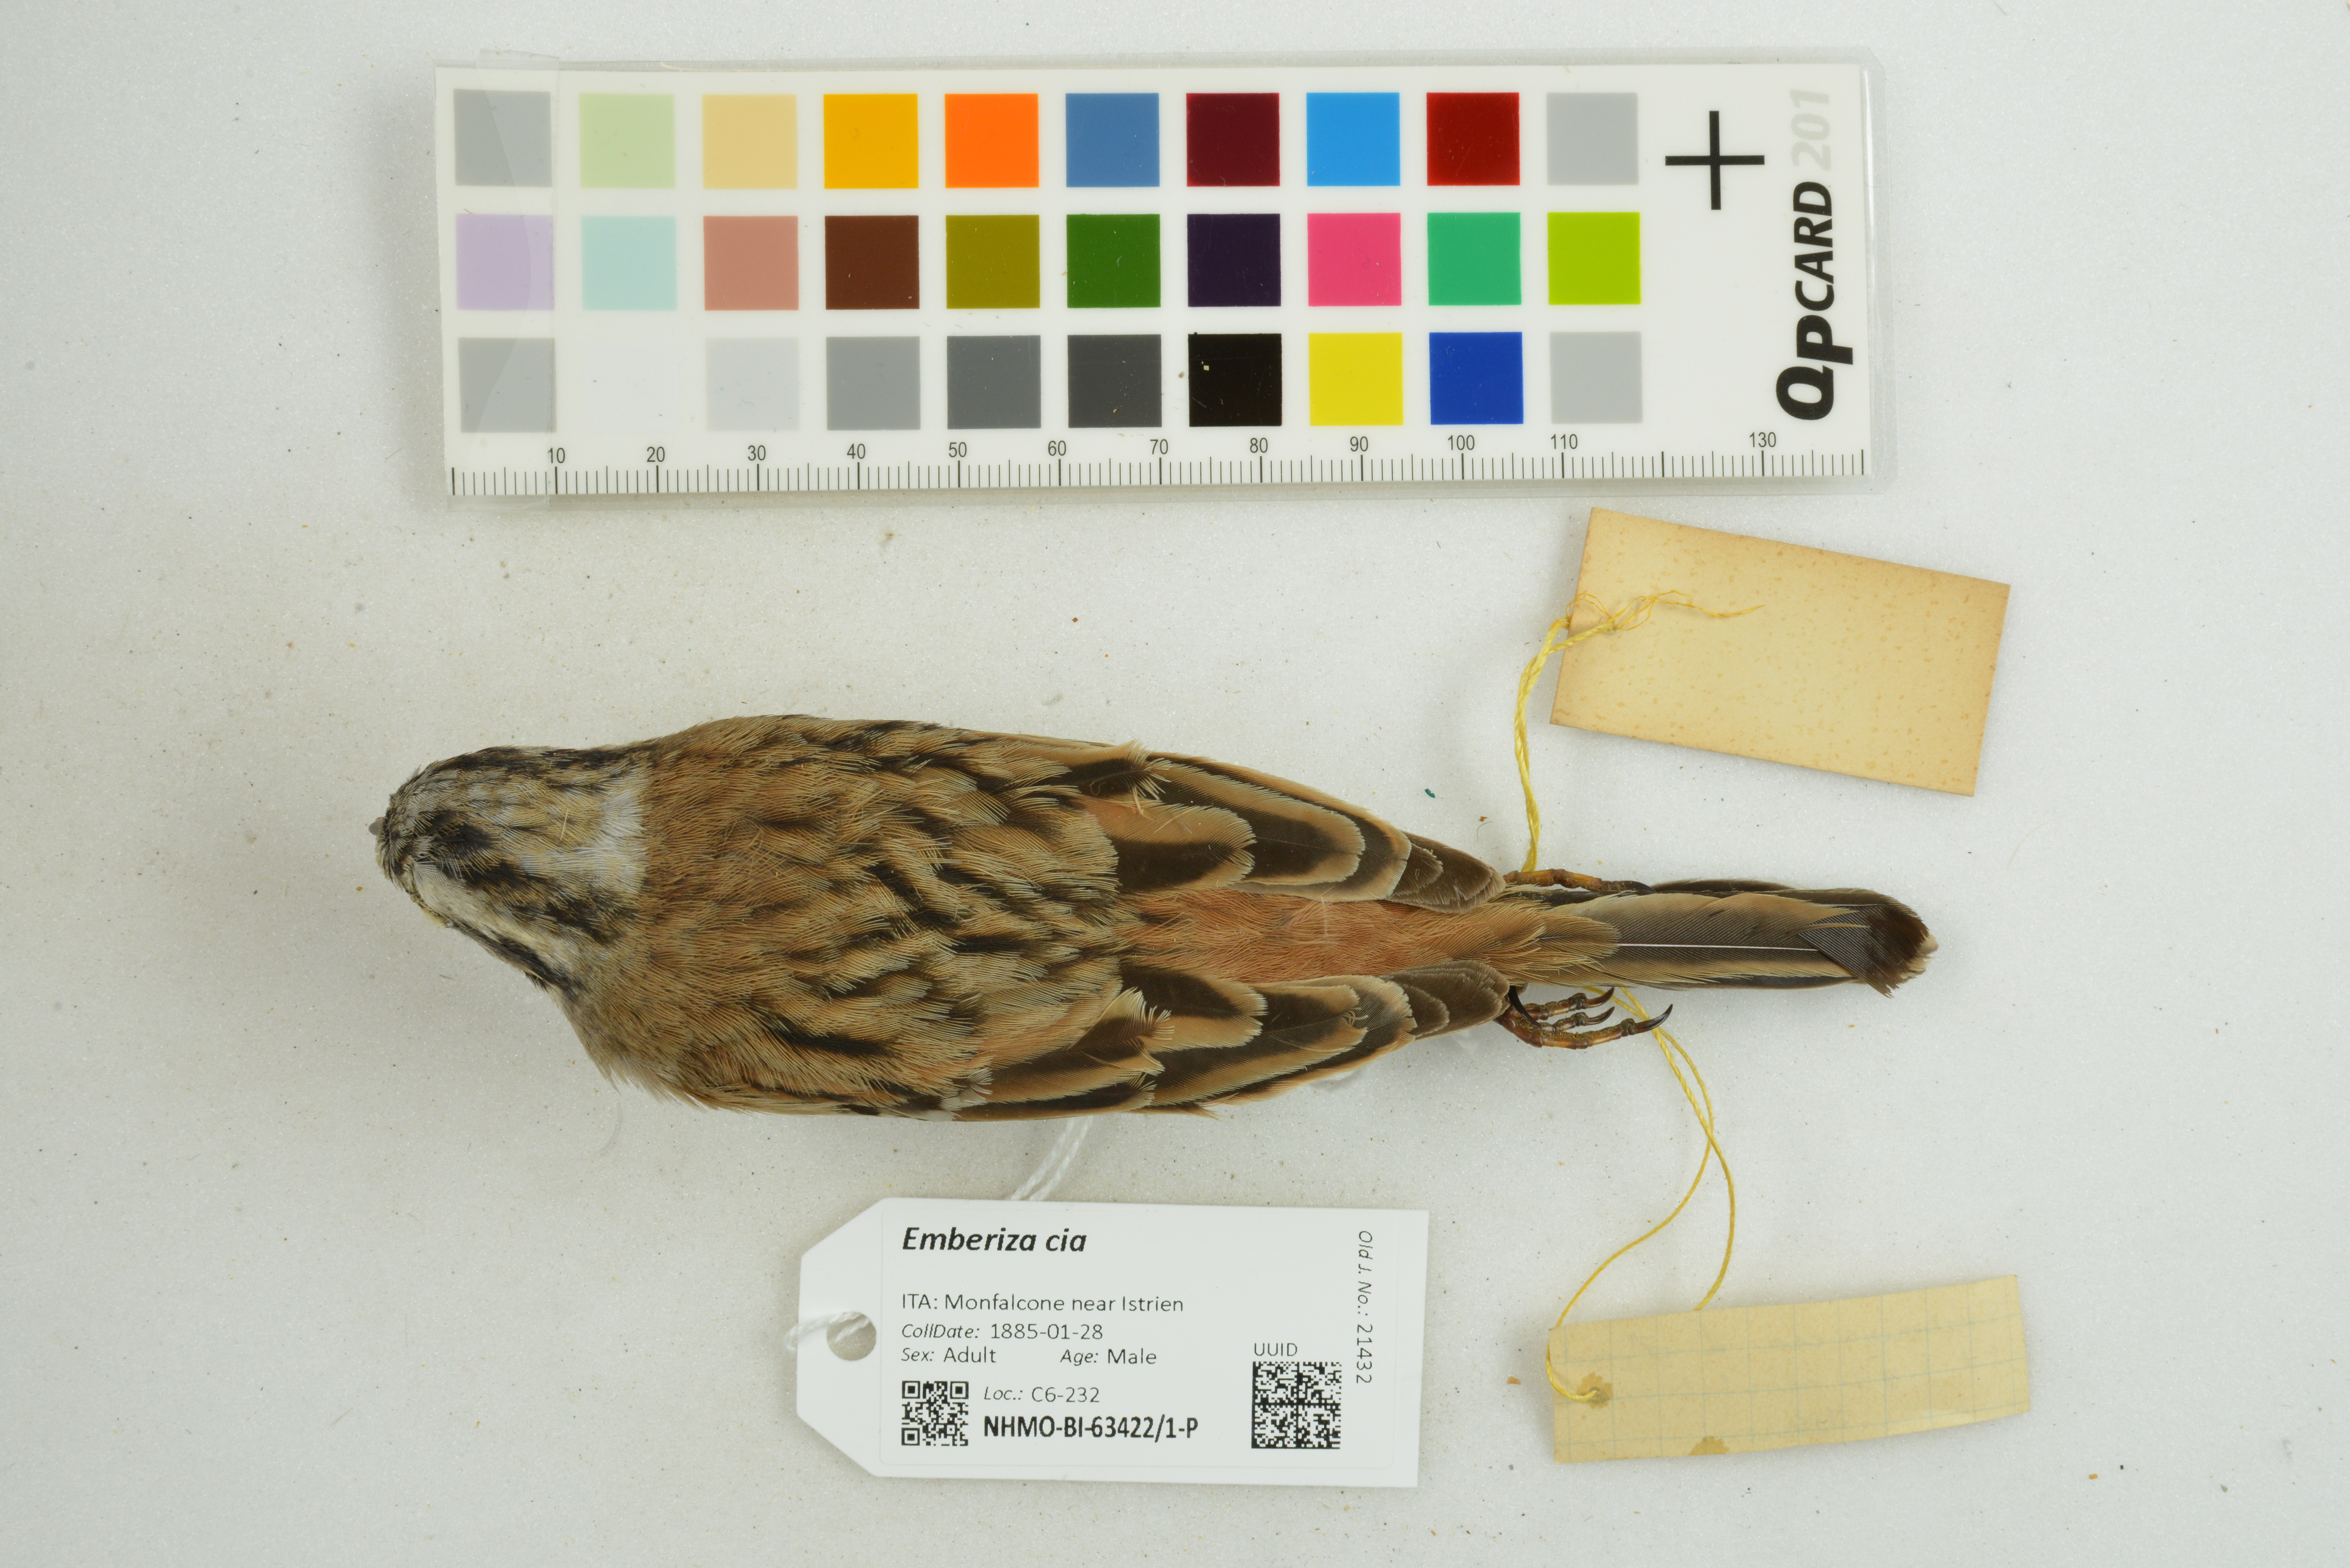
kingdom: Animalia
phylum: Chordata
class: Aves
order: Passeriformes
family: Emberizidae
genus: Emberiza
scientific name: Emberiza cia
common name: Rock bunting
